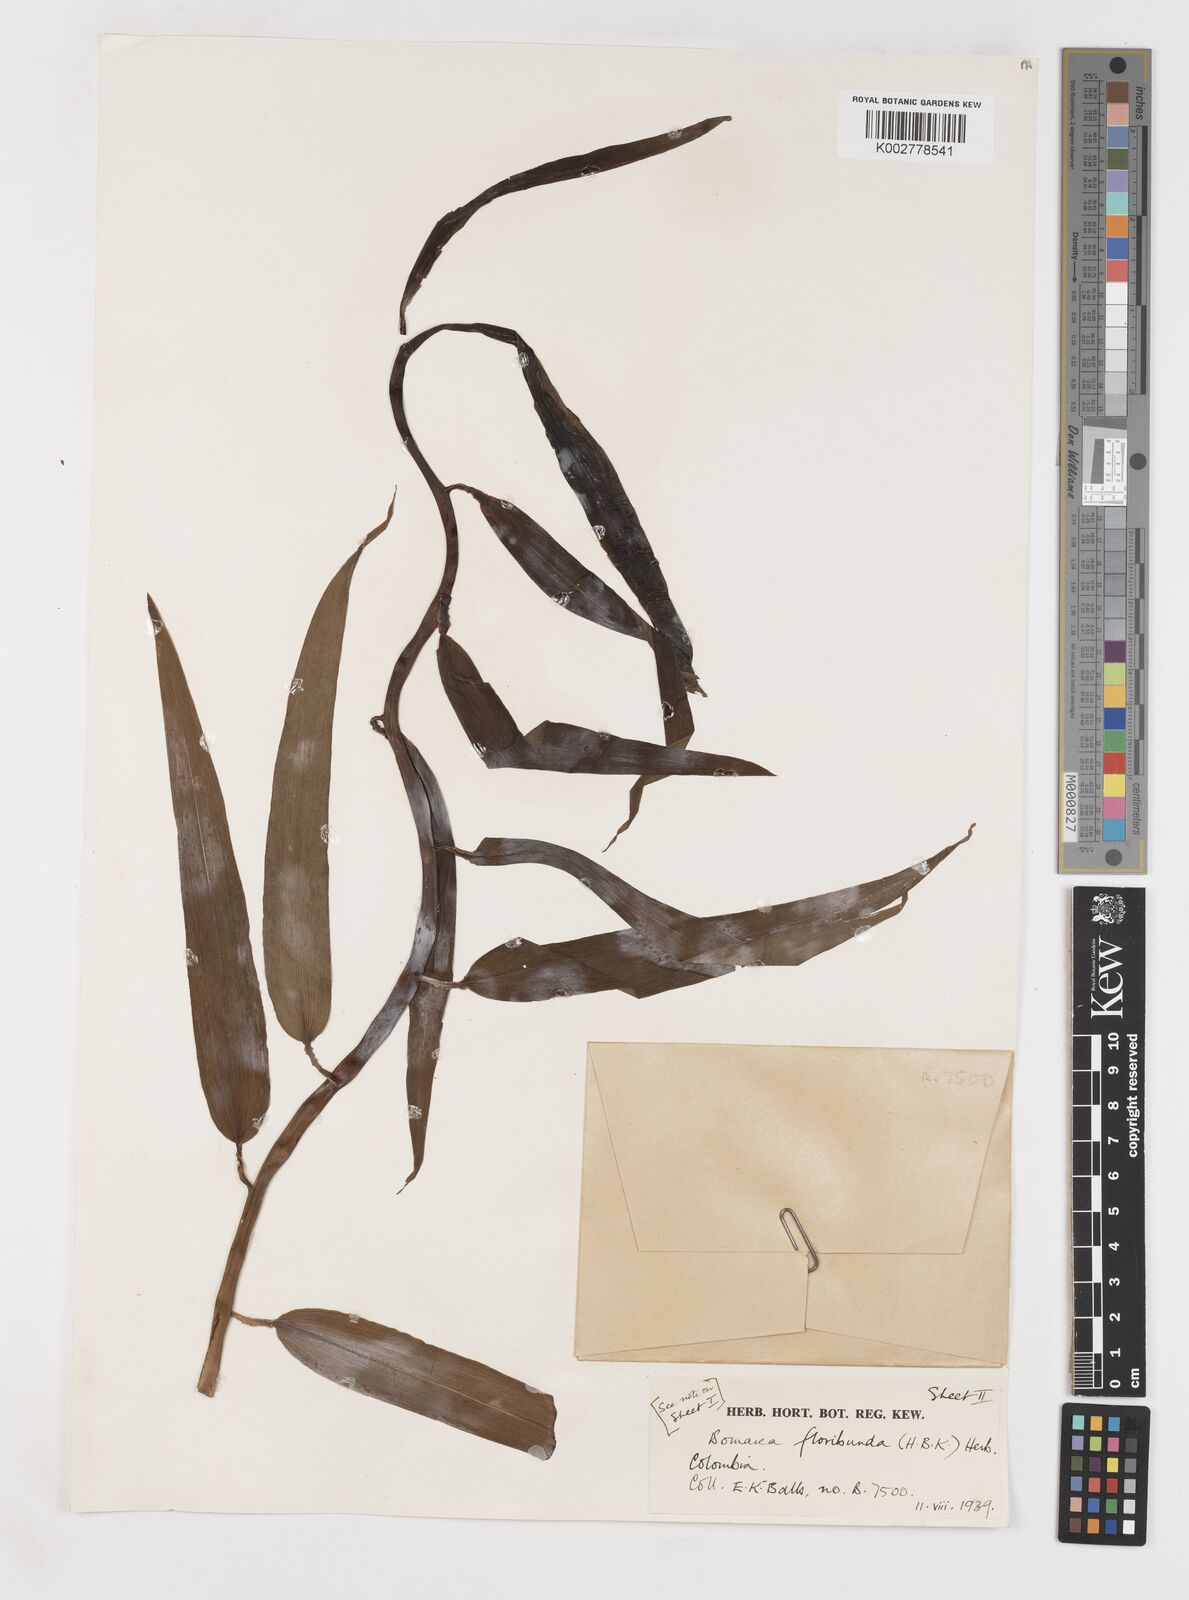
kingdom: Plantae
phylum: Tracheophyta
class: Liliopsida
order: Liliales
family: Alstroemeriaceae
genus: Bomarea
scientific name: Bomarea multiflora
